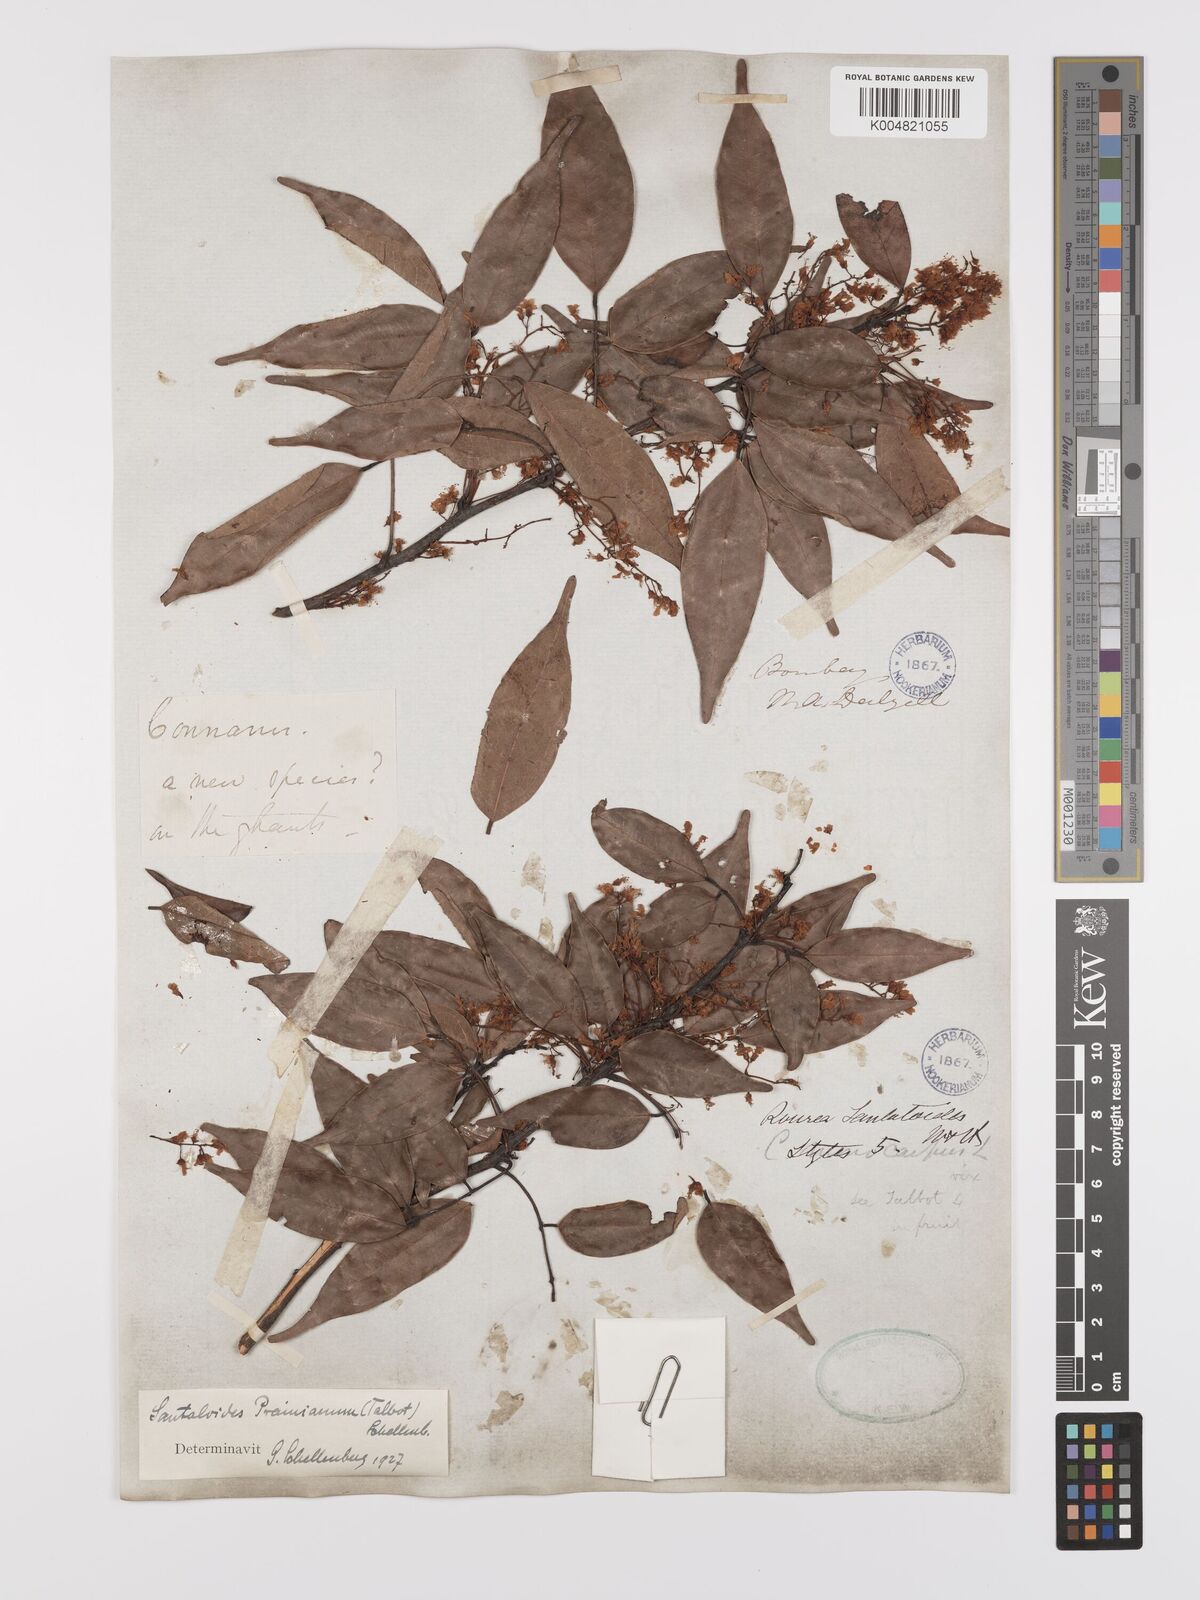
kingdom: Plantae
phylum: Tracheophyta
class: Magnoliopsida
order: Oxalidales
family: Connaraceae
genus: Rourea
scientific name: Rourea prainiana
